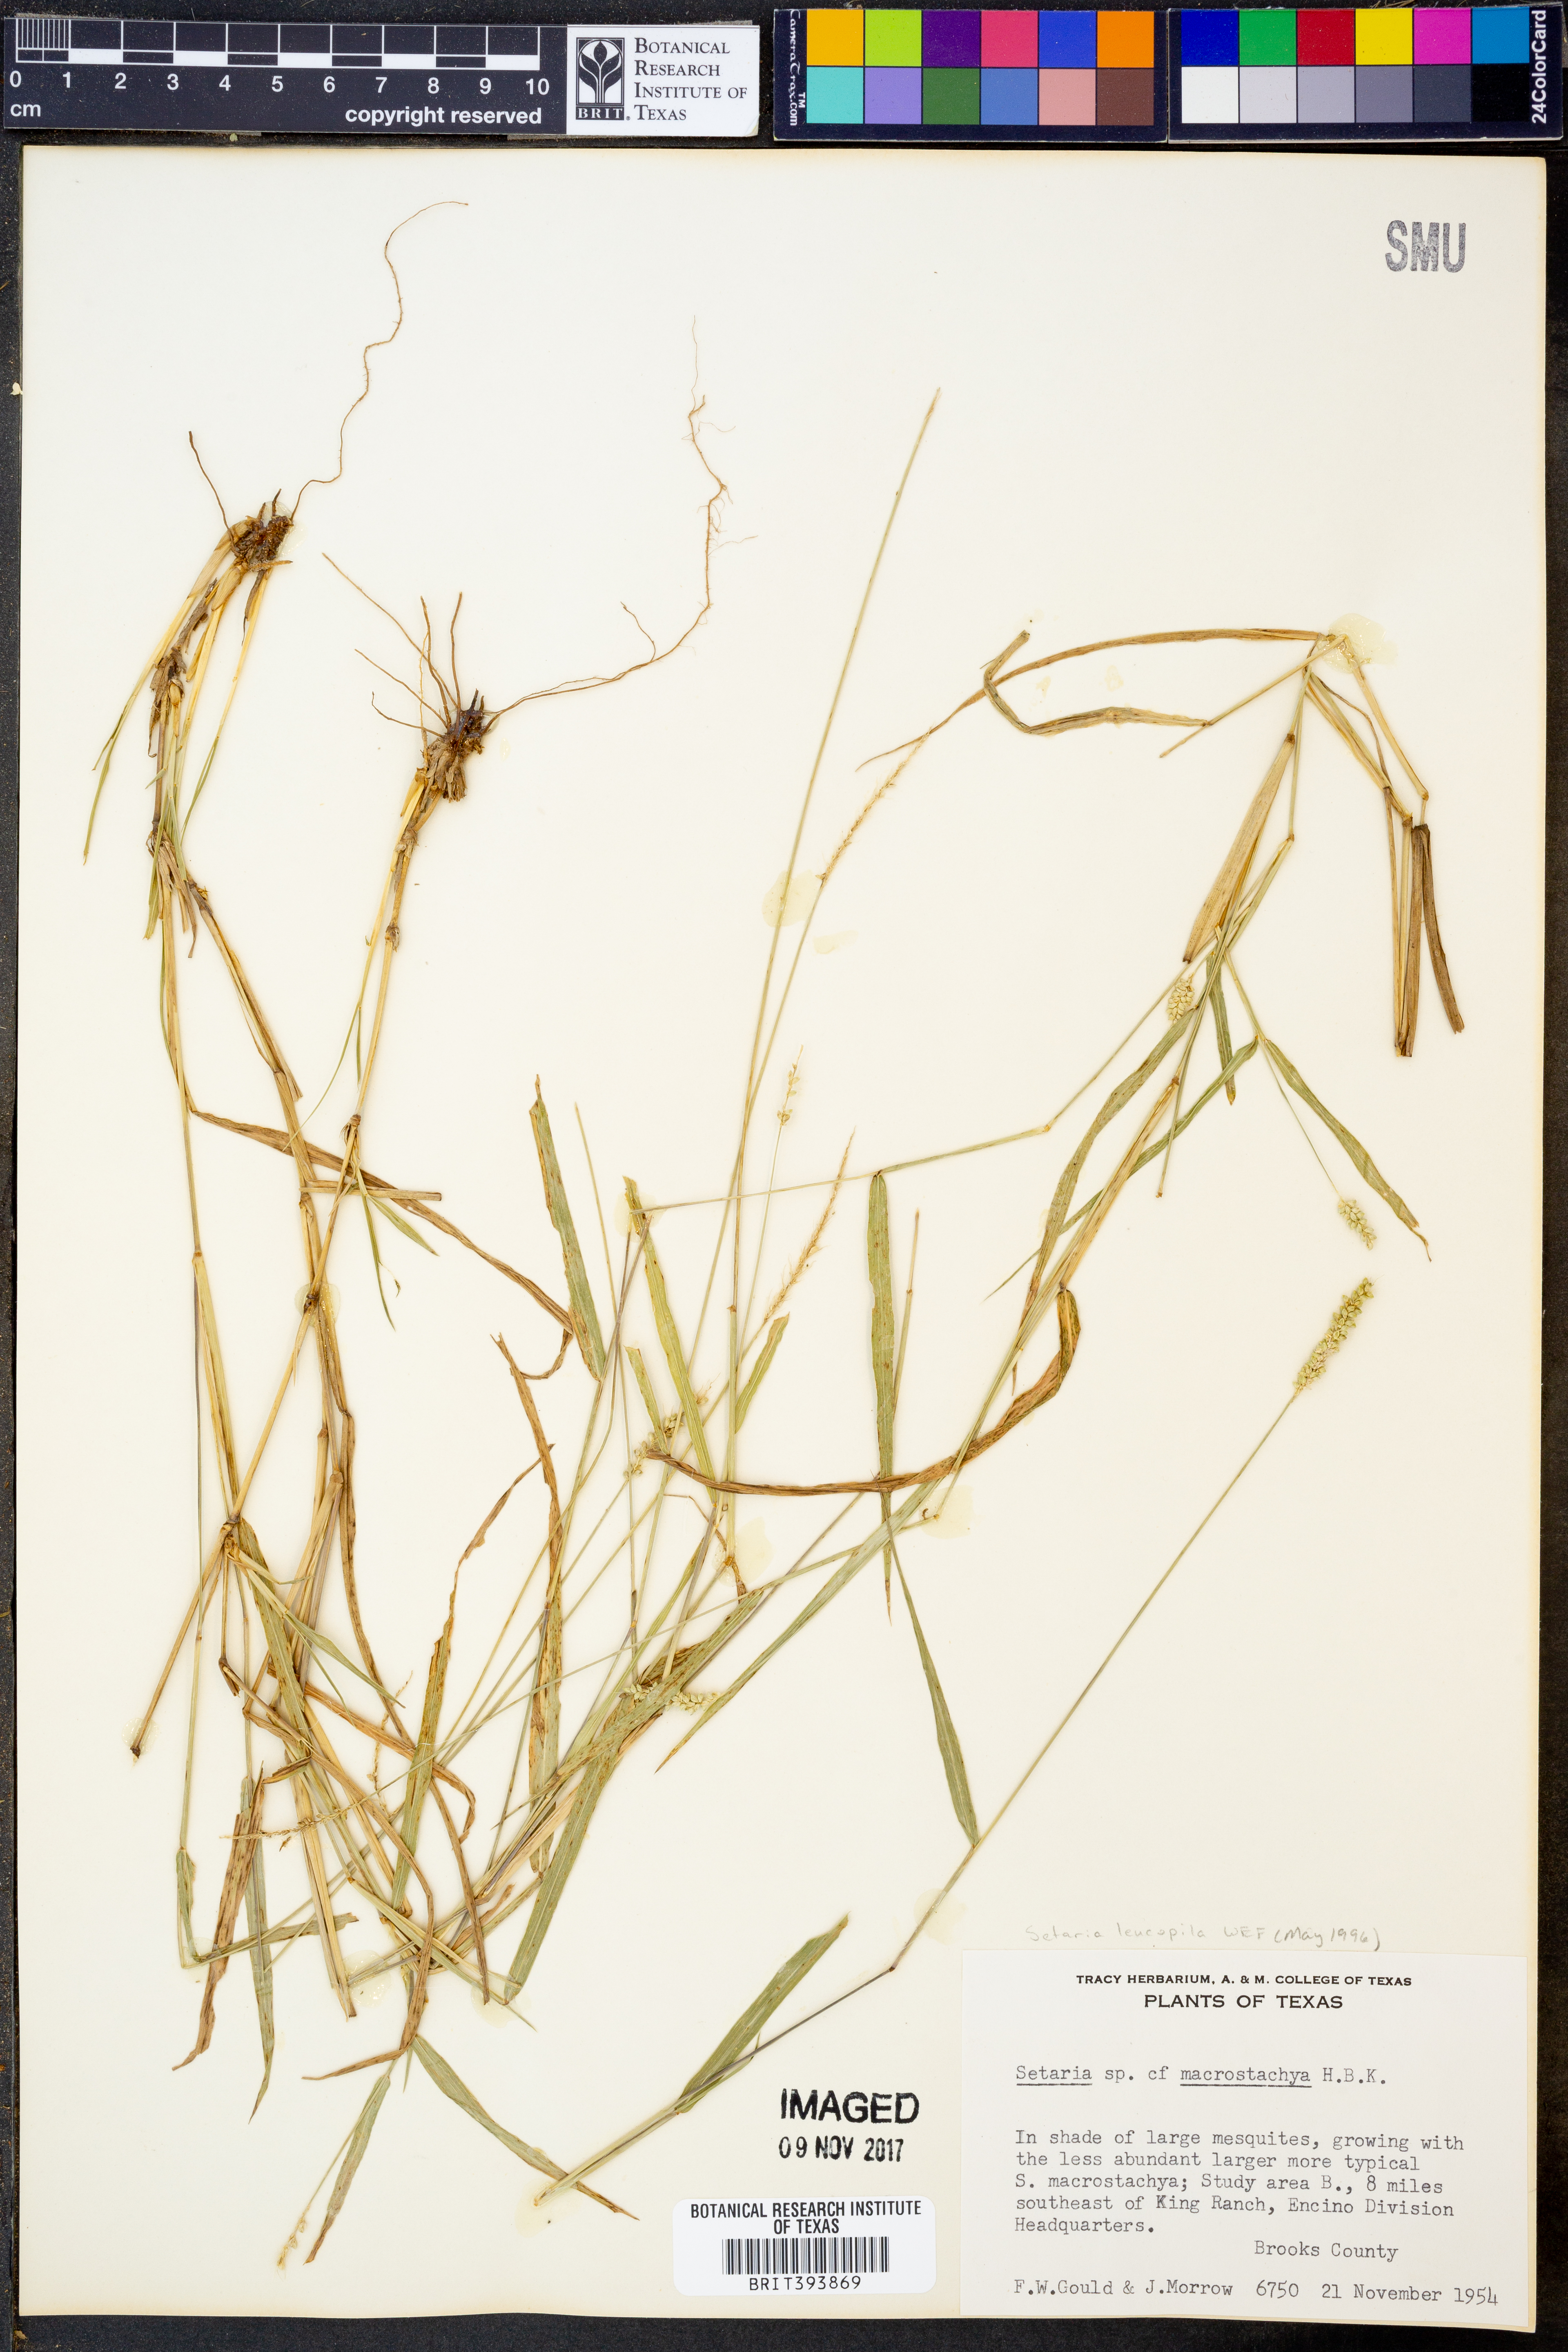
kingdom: Plantae
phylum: Tracheophyta
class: Liliopsida
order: Poales
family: Poaceae
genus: Setaria
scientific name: Setaria macrostachya
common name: Plains bristle grass
